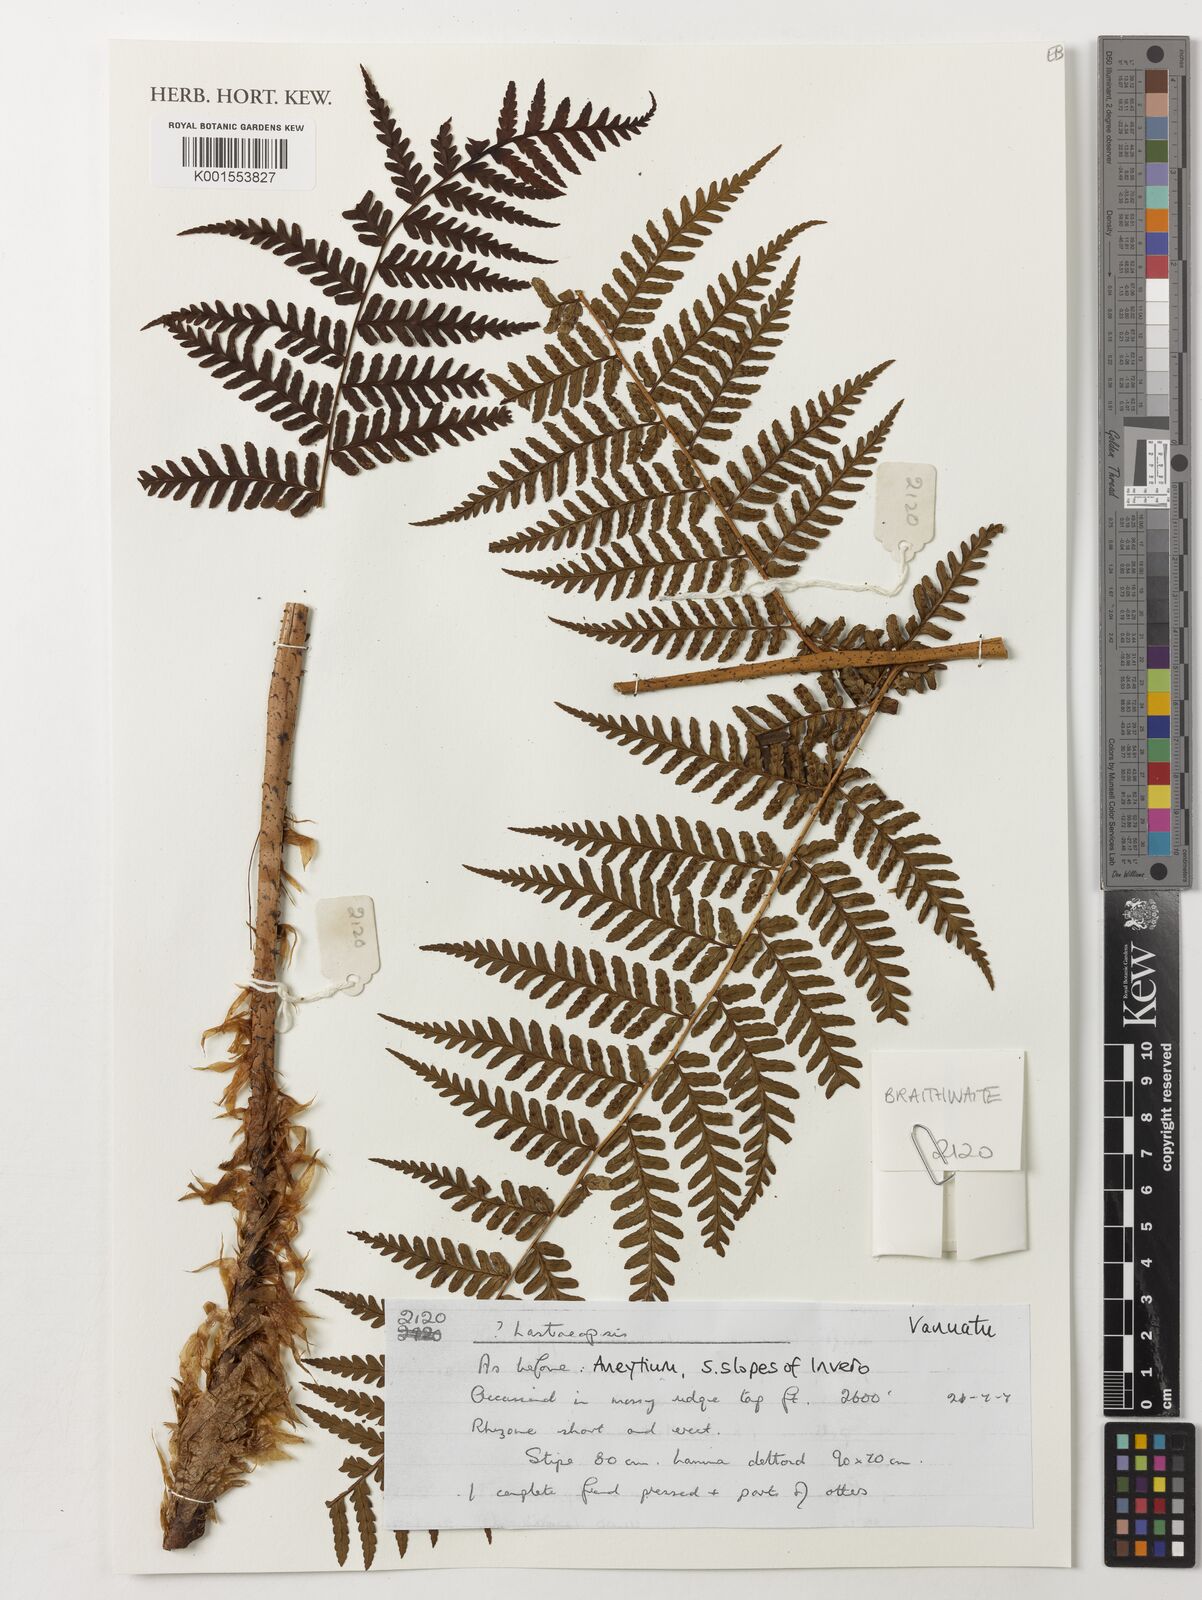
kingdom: Plantae
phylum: Tracheophyta
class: Polypodiopsida
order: Polypodiales
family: Dryopteridaceae
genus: Lastreopsis
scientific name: Lastreopsis
